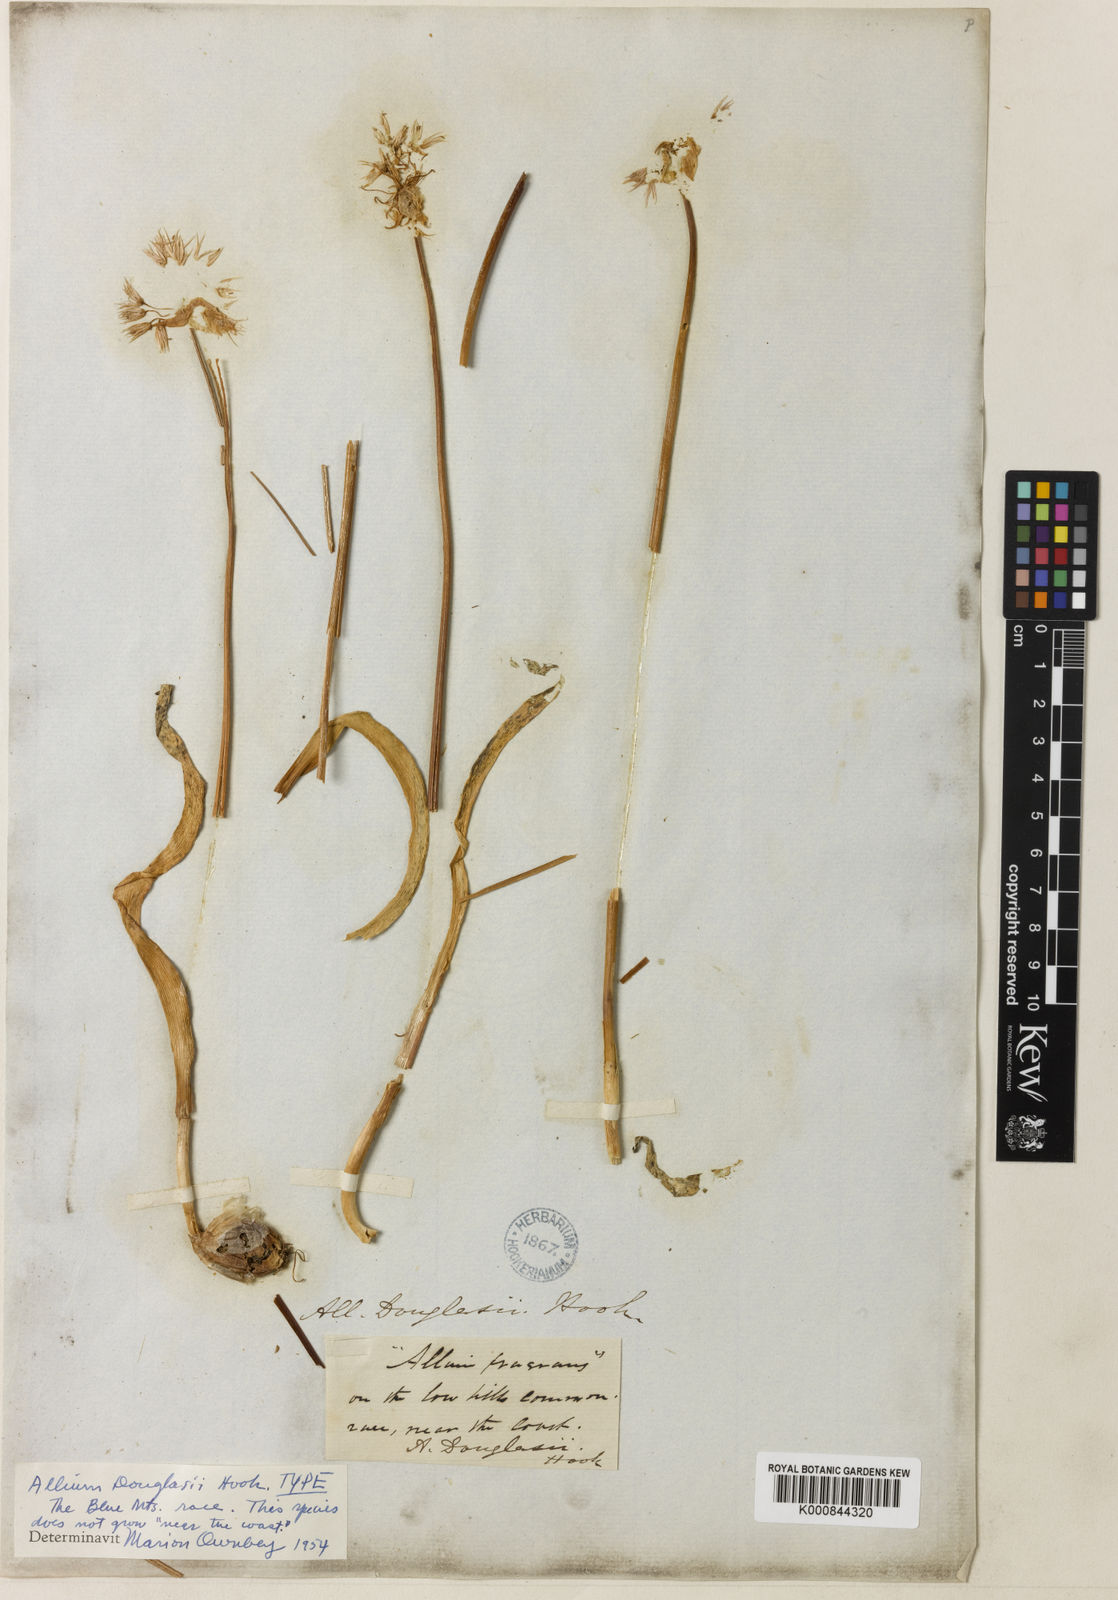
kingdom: Plantae
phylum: Tracheophyta
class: Liliopsida
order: Asparagales
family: Amaryllidaceae
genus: Allium
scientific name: Allium douglasii
